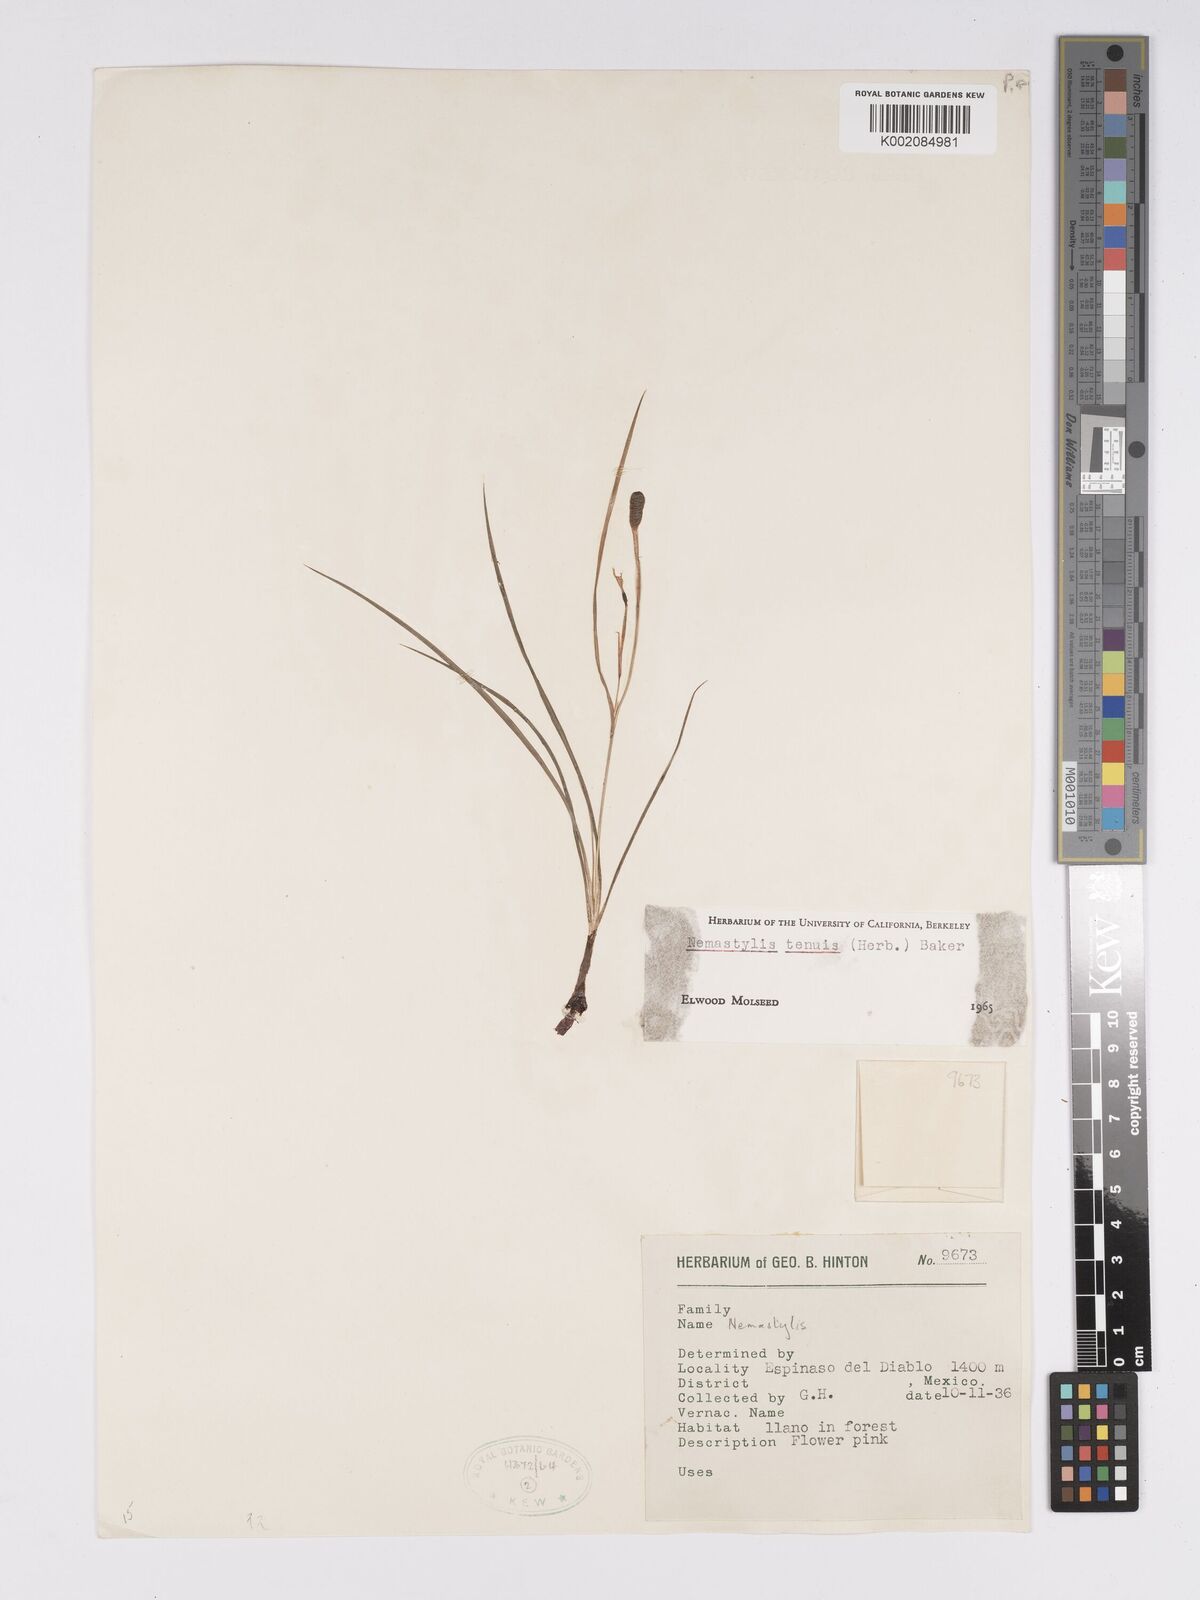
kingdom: Plantae
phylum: Tracheophyta
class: Liliopsida
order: Asparagales
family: Iridaceae
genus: Nemastylis
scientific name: Nemastylis tenuis
